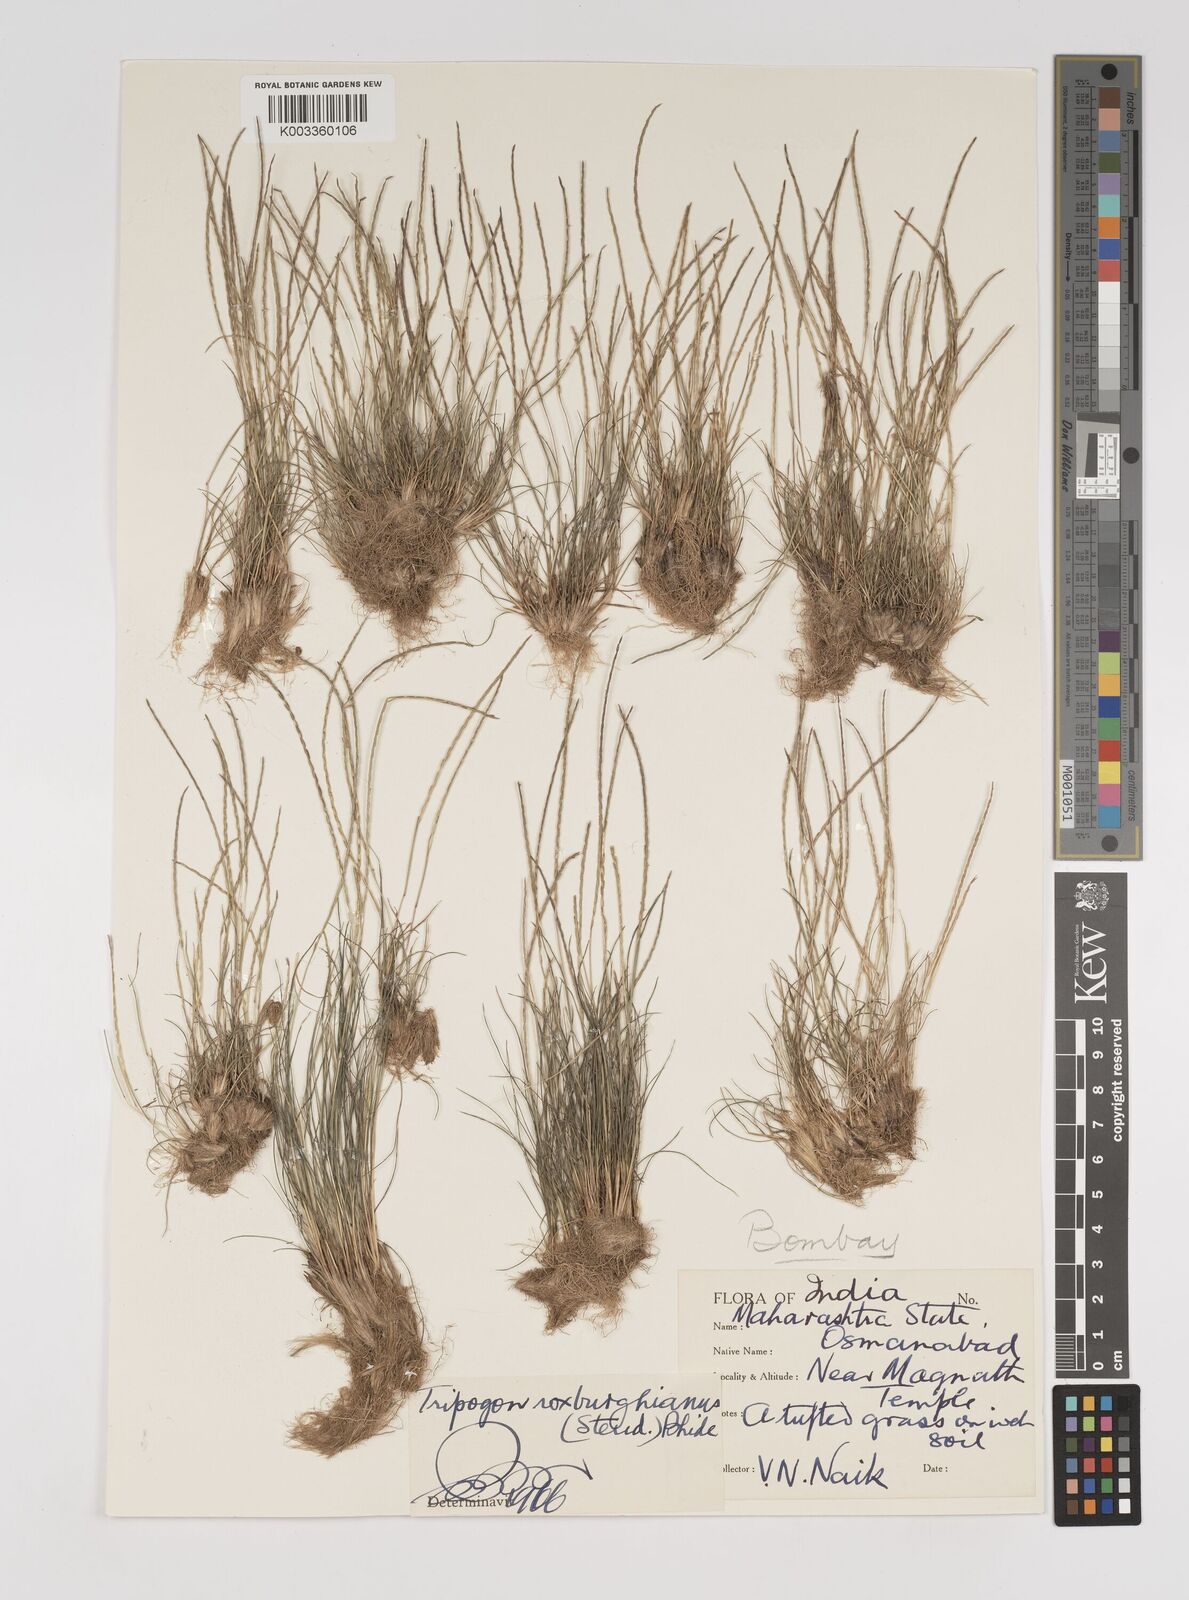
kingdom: Plantae
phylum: Tracheophyta
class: Liliopsida
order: Poales
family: Poaceae
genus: Oropetium
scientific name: Oropetium roxburghianum
